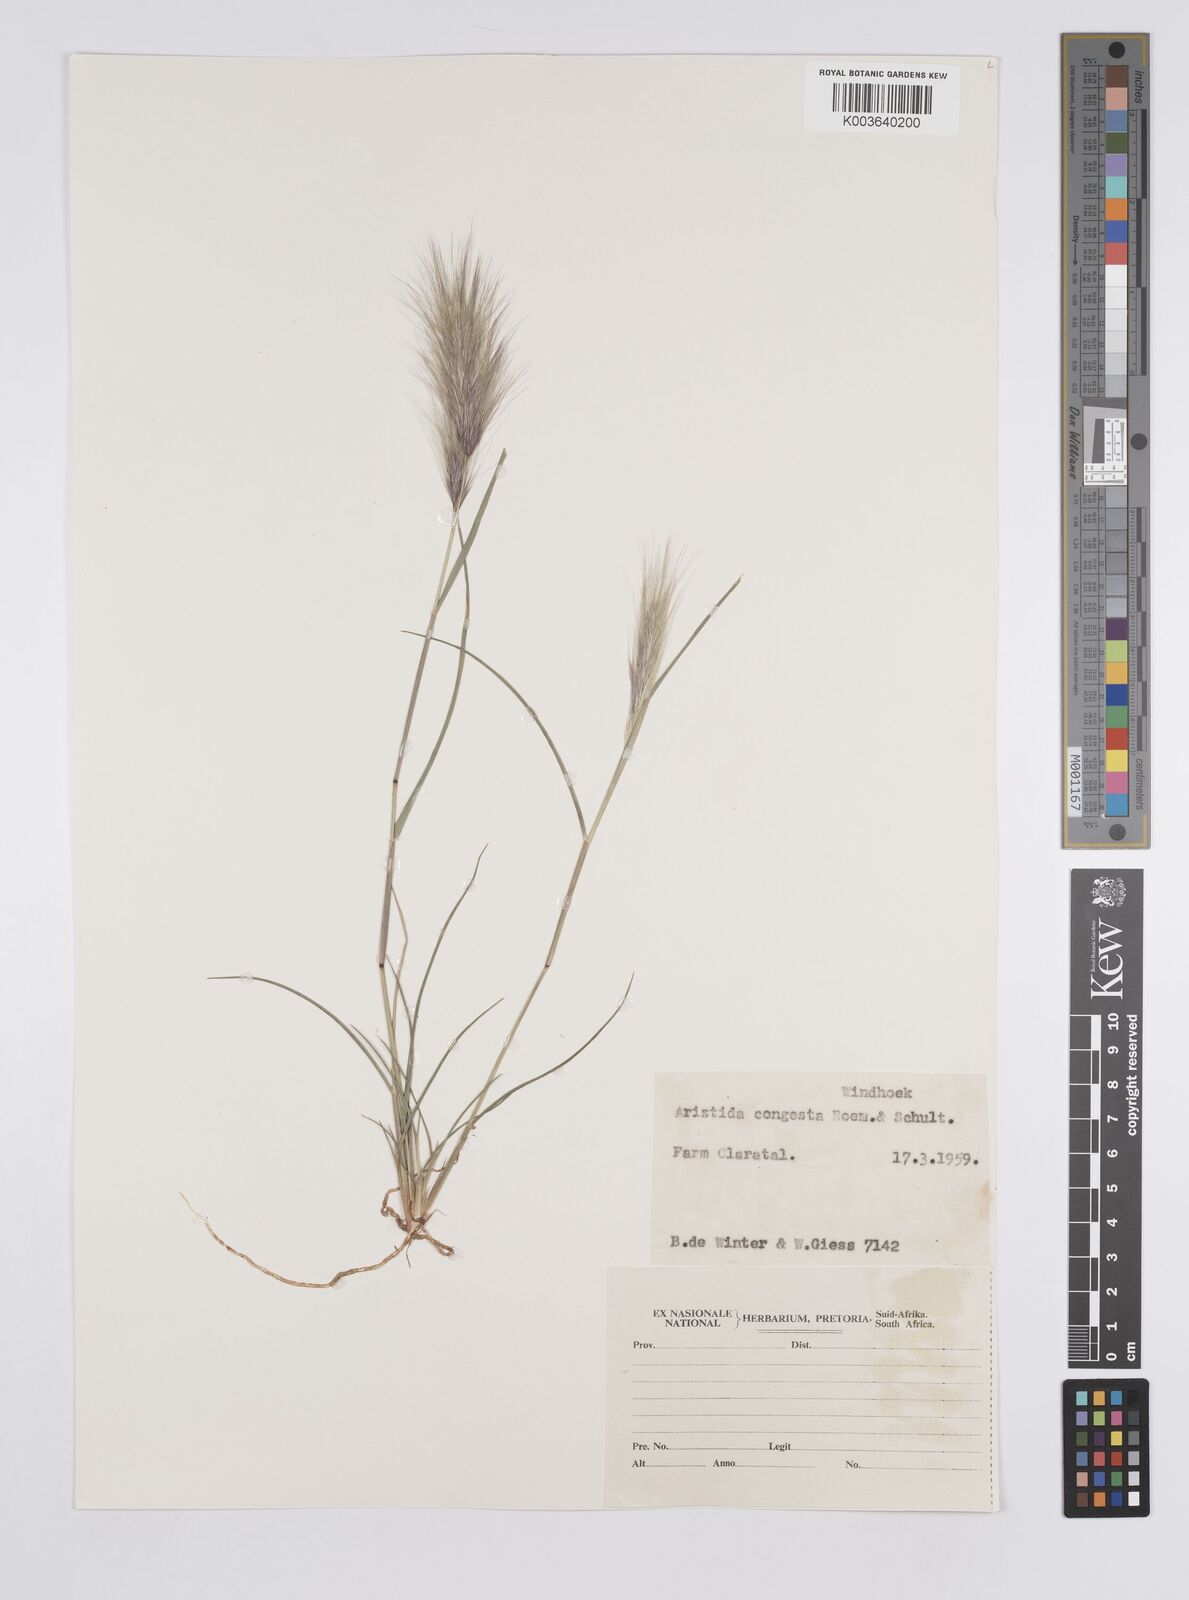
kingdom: Plantae
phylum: Tracheophyta
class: Liliopsida
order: Poales
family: Poaceae
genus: Aristida
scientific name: Aristida congesta
